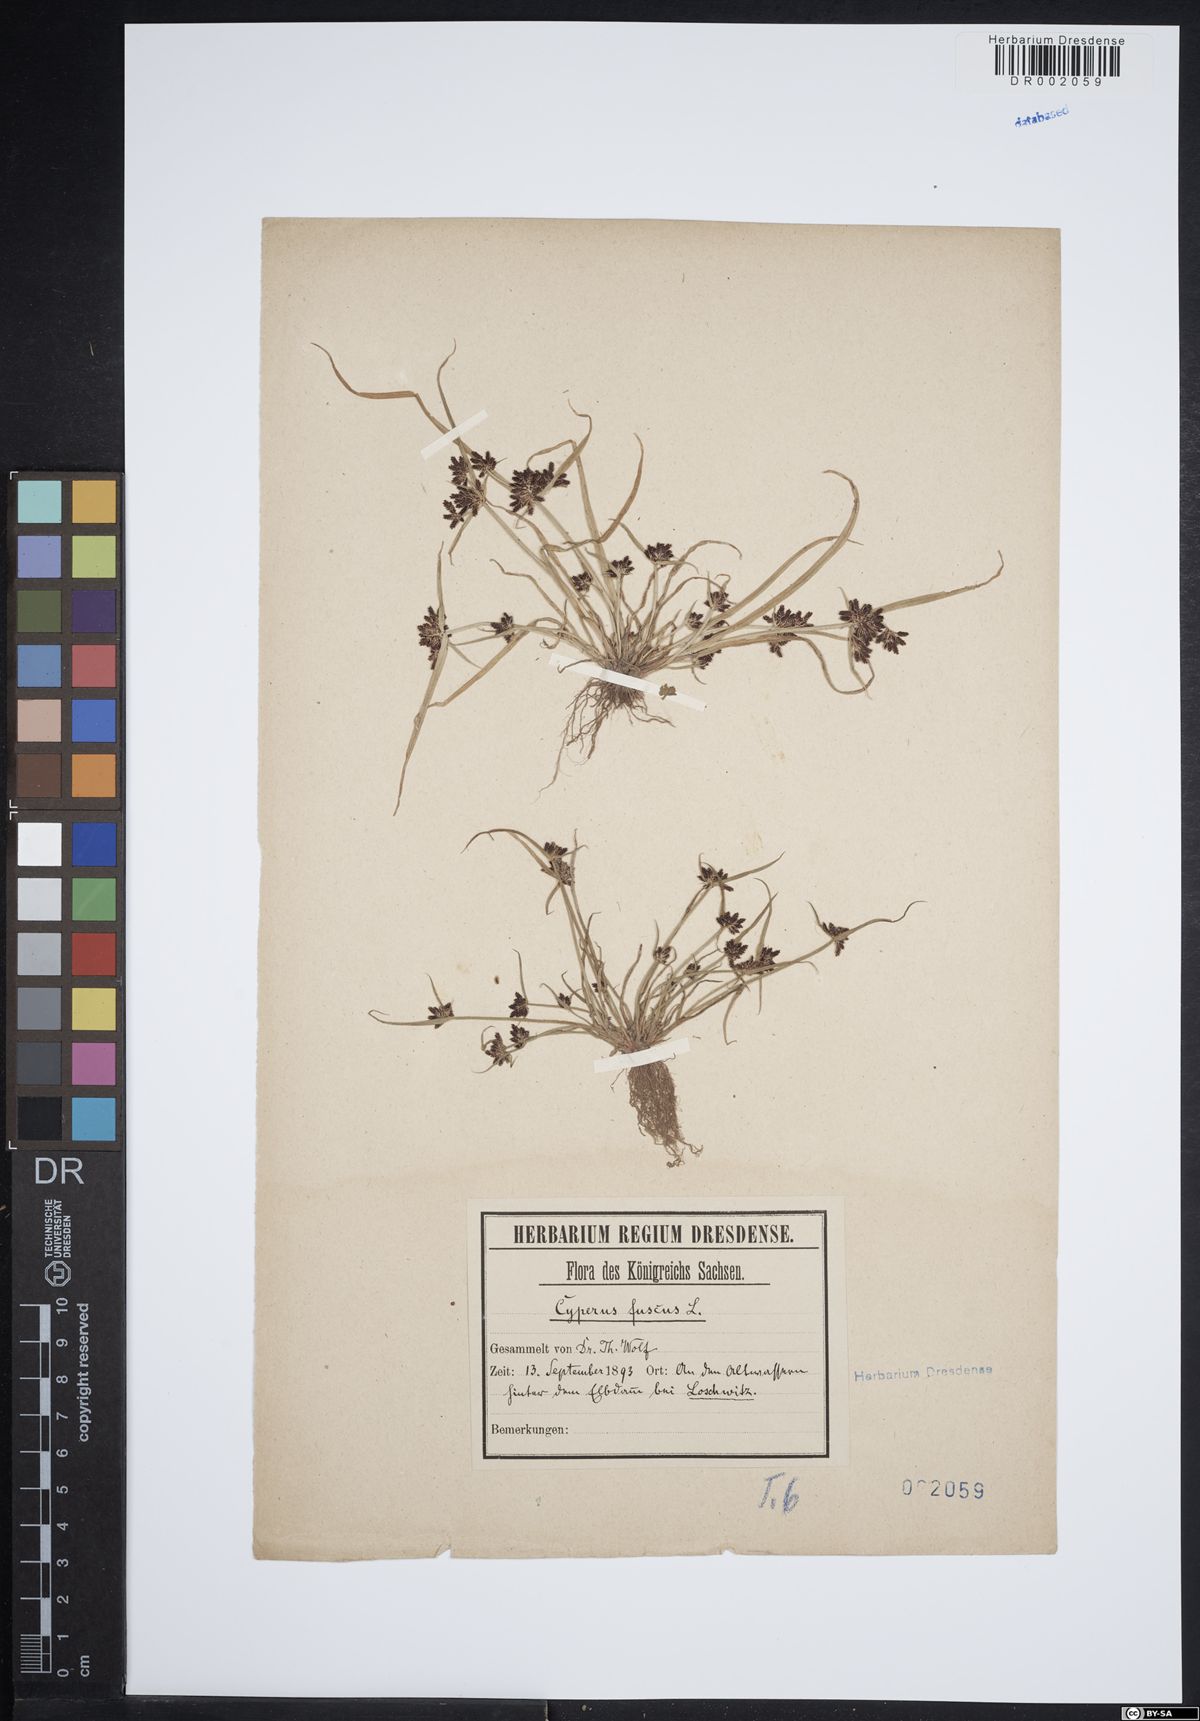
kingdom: Plantae
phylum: Tracheophyta
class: Liliopsida
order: Poales
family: Cyperaceae
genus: Cyperus
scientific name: Cyperus fuscus
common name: Brown galingale
